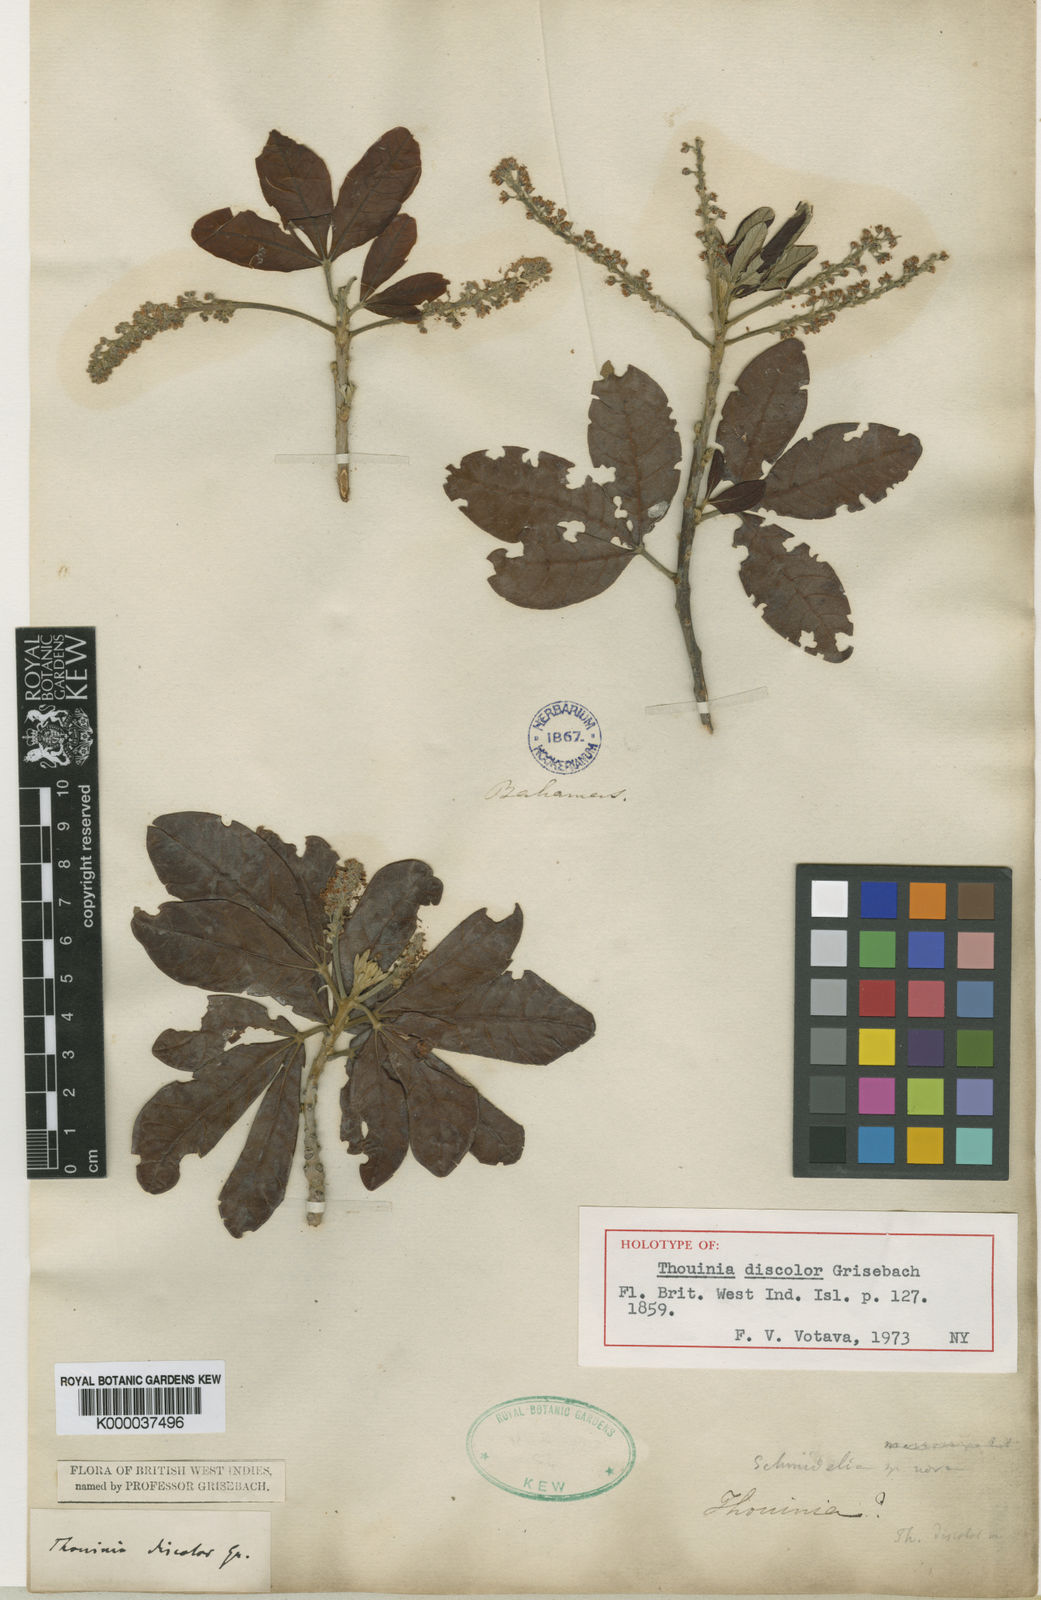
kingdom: Plantae
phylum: Tracheophyta
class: Magnoliopsida
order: Sapindales
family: Sapindaceae
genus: Thouinia
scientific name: Thouinia discolor
